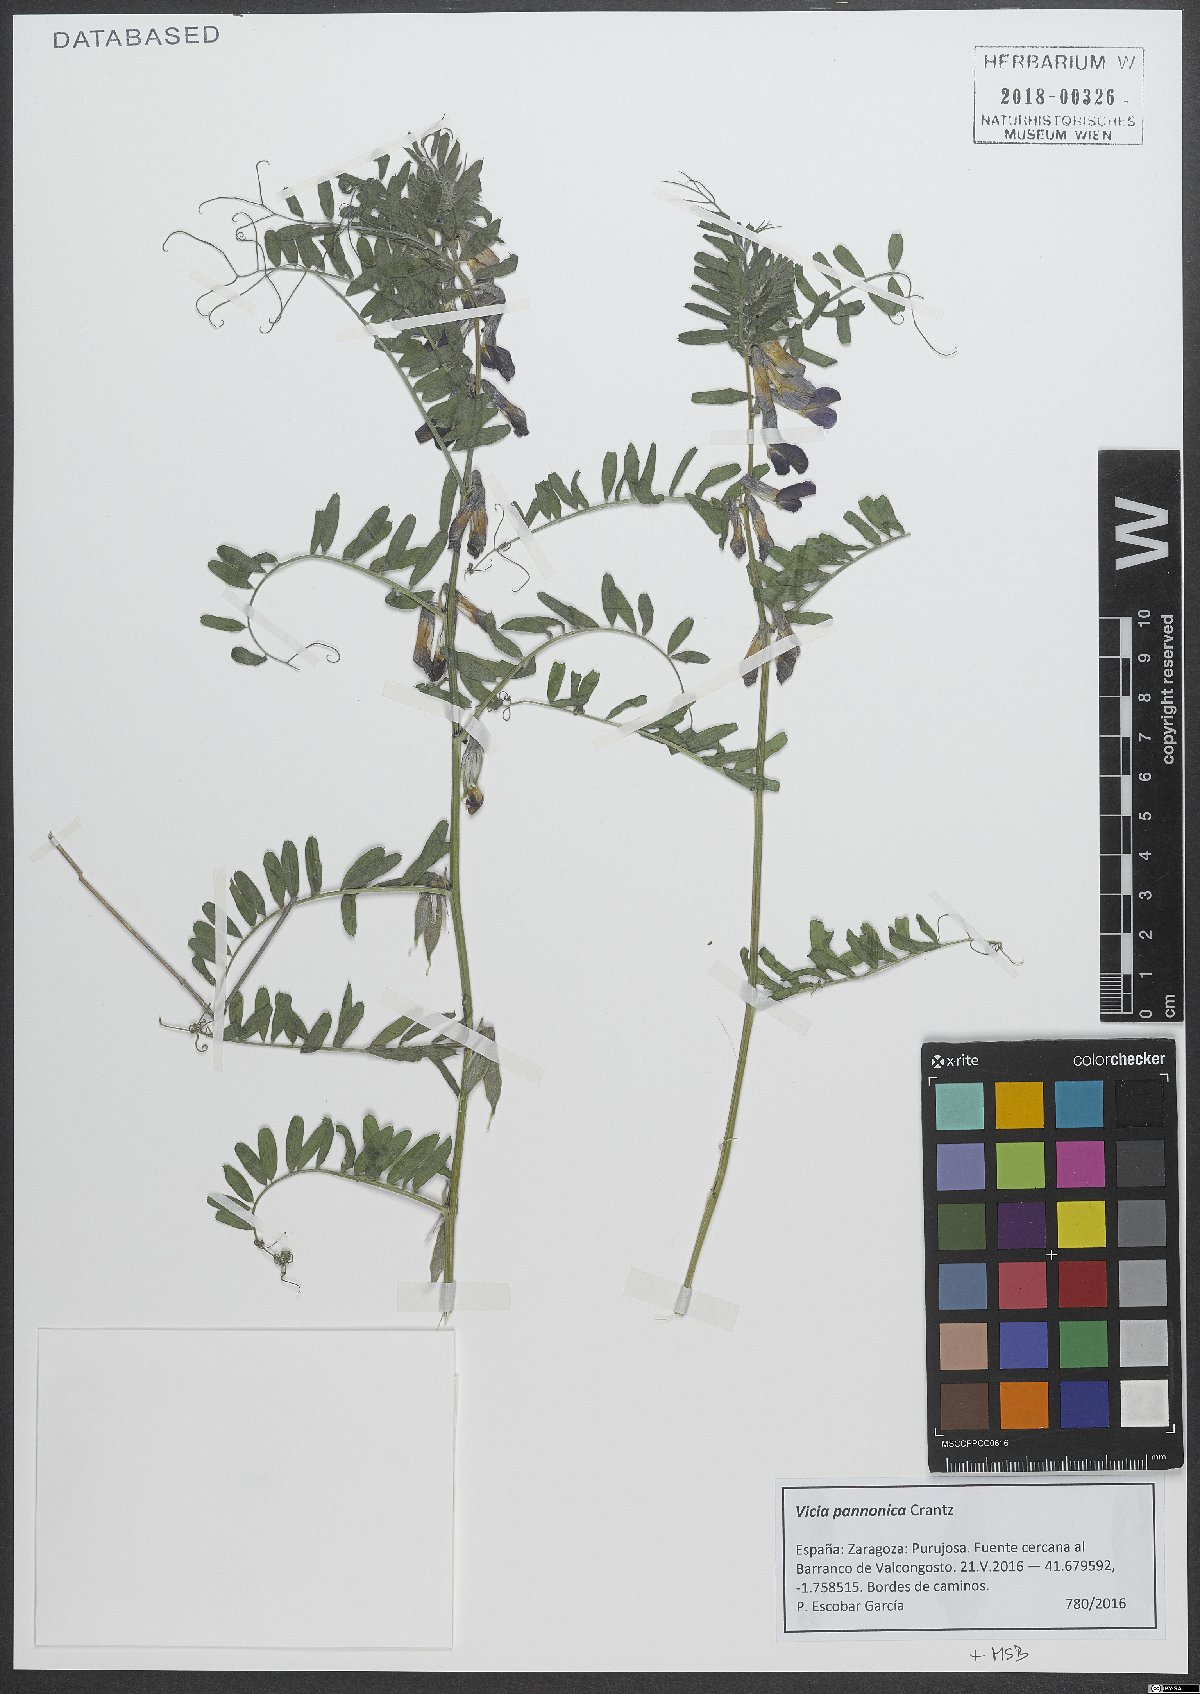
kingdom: Plantae
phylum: Tracheophyta
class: Magnoliopsida
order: Fabales
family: Fabaceae
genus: Vicia
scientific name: Vicia pannonica
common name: Hungarian vetch
